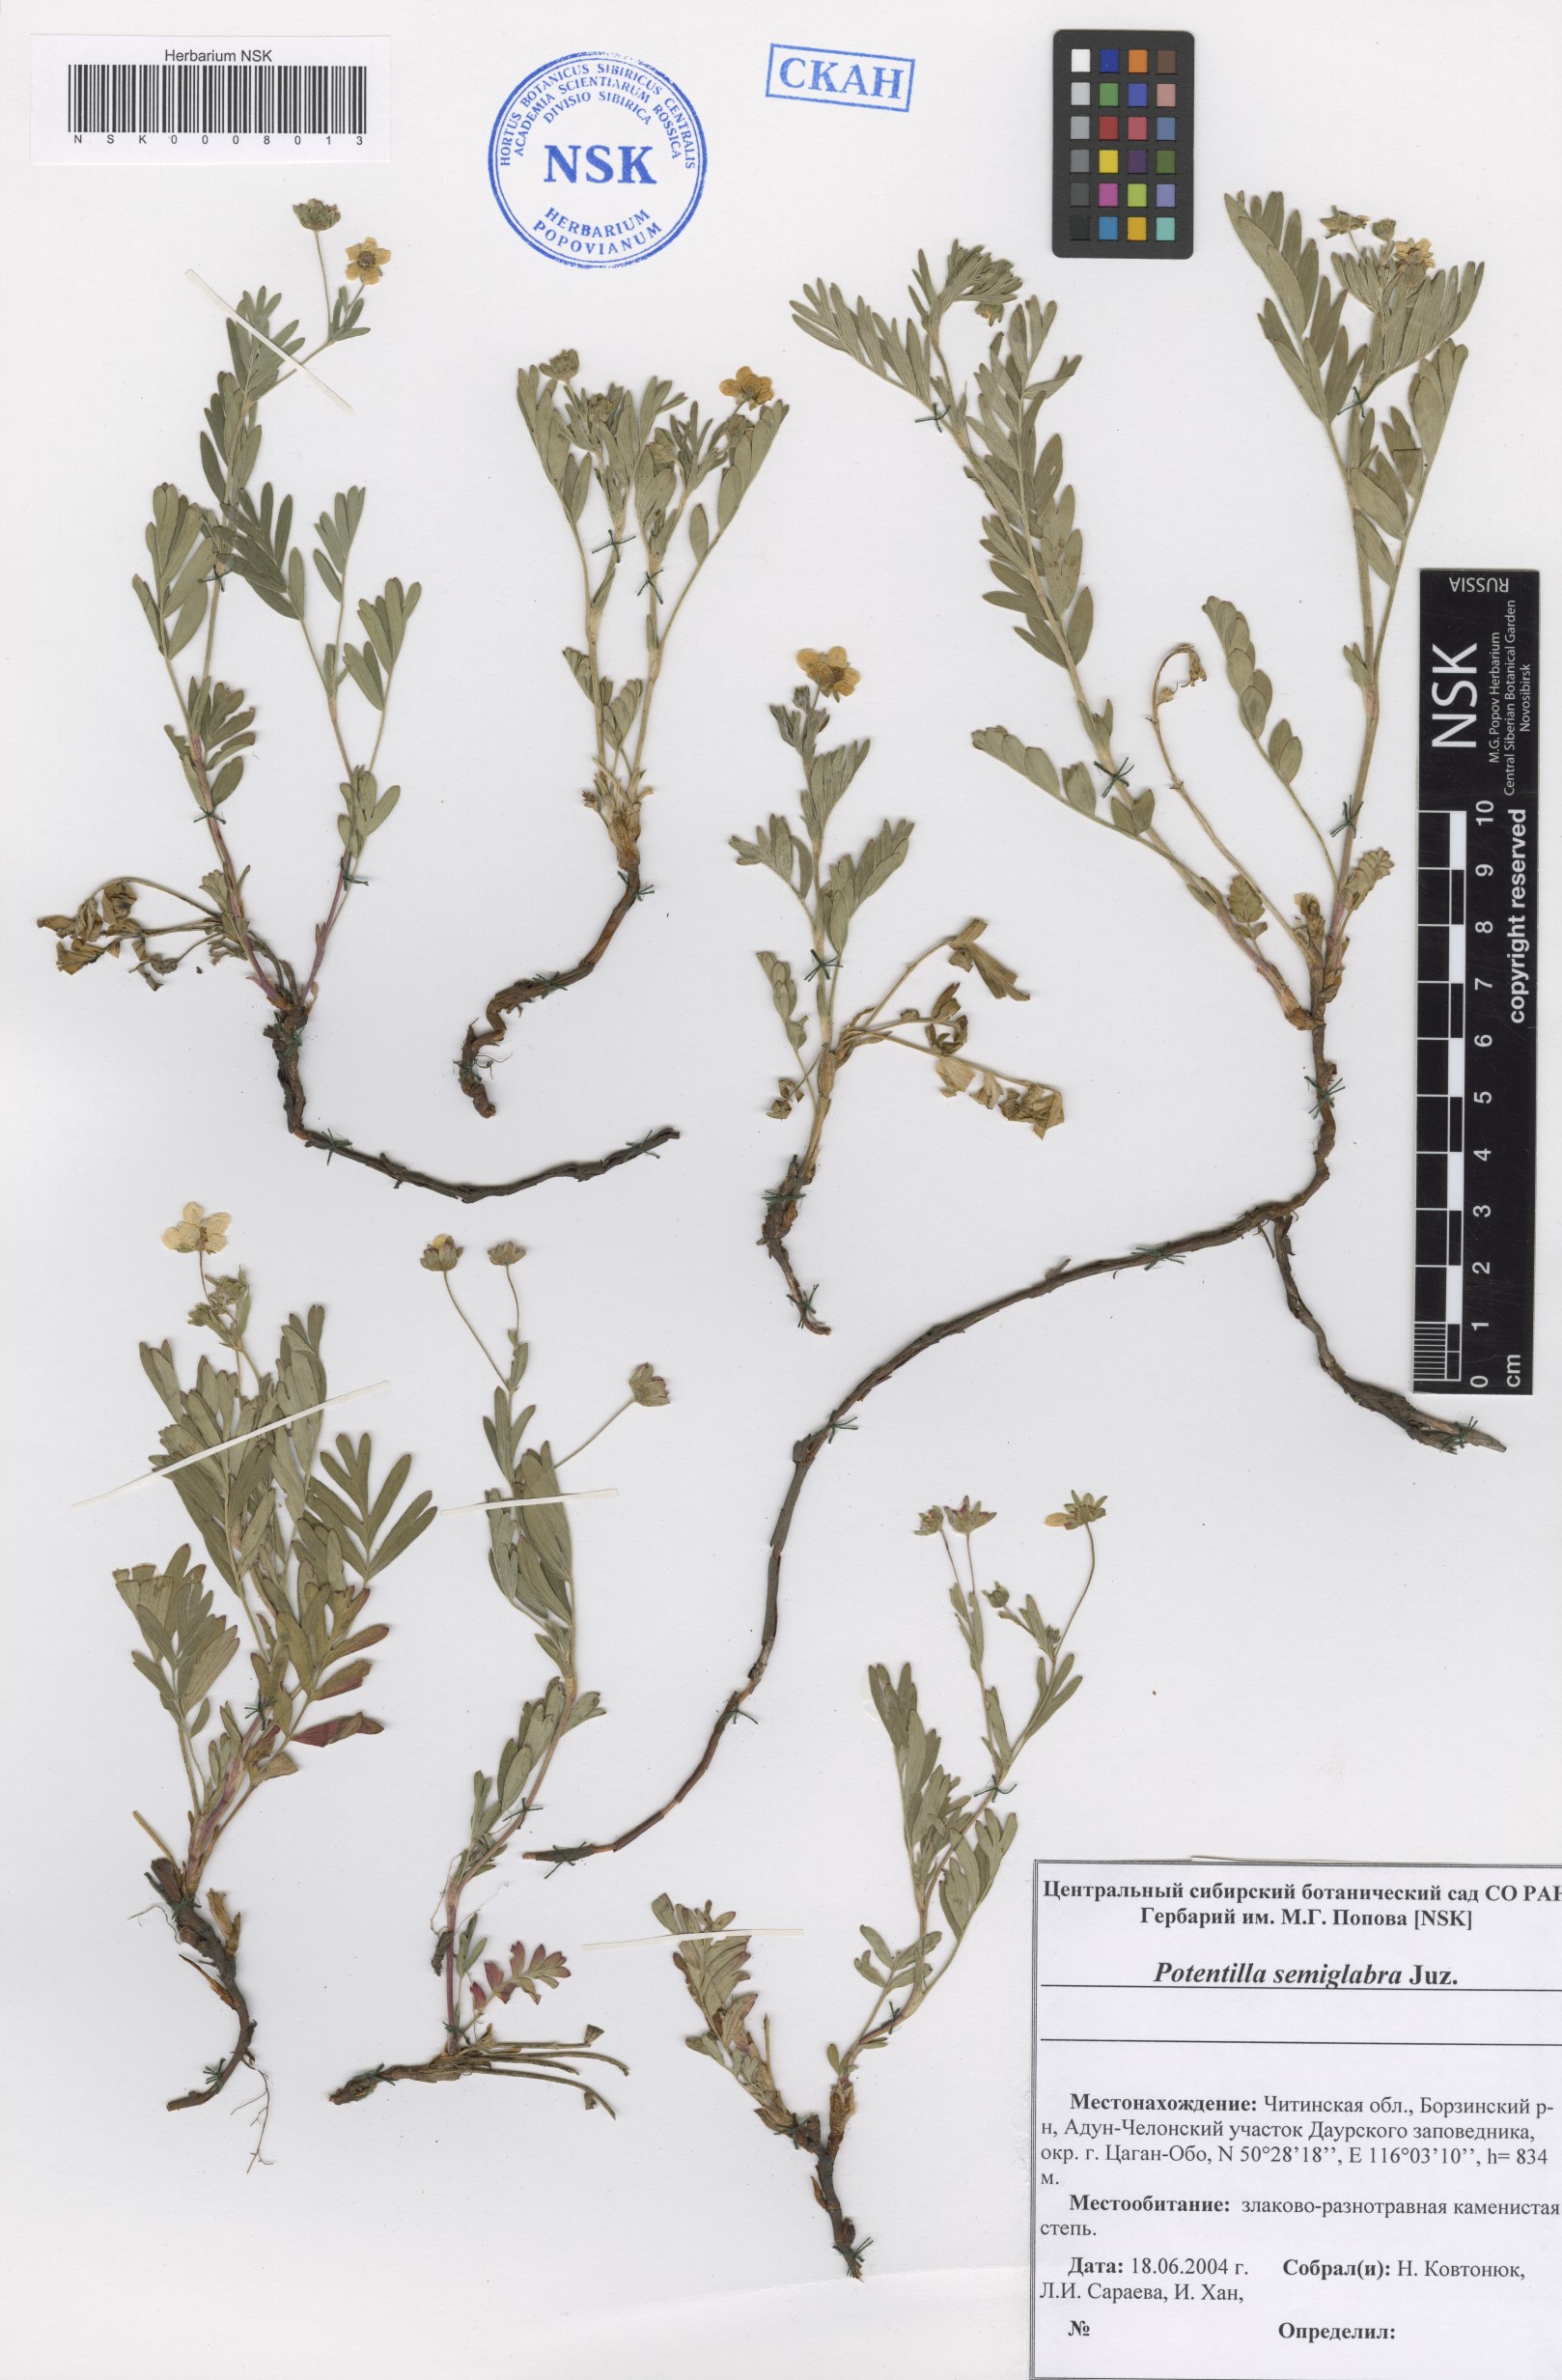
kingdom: Plantae
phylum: Tracheophyta
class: Magnoliopsida
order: Rosales
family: Rosaceae
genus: Sibbaldianthe
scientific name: Sibbaldianthe semiglabra
